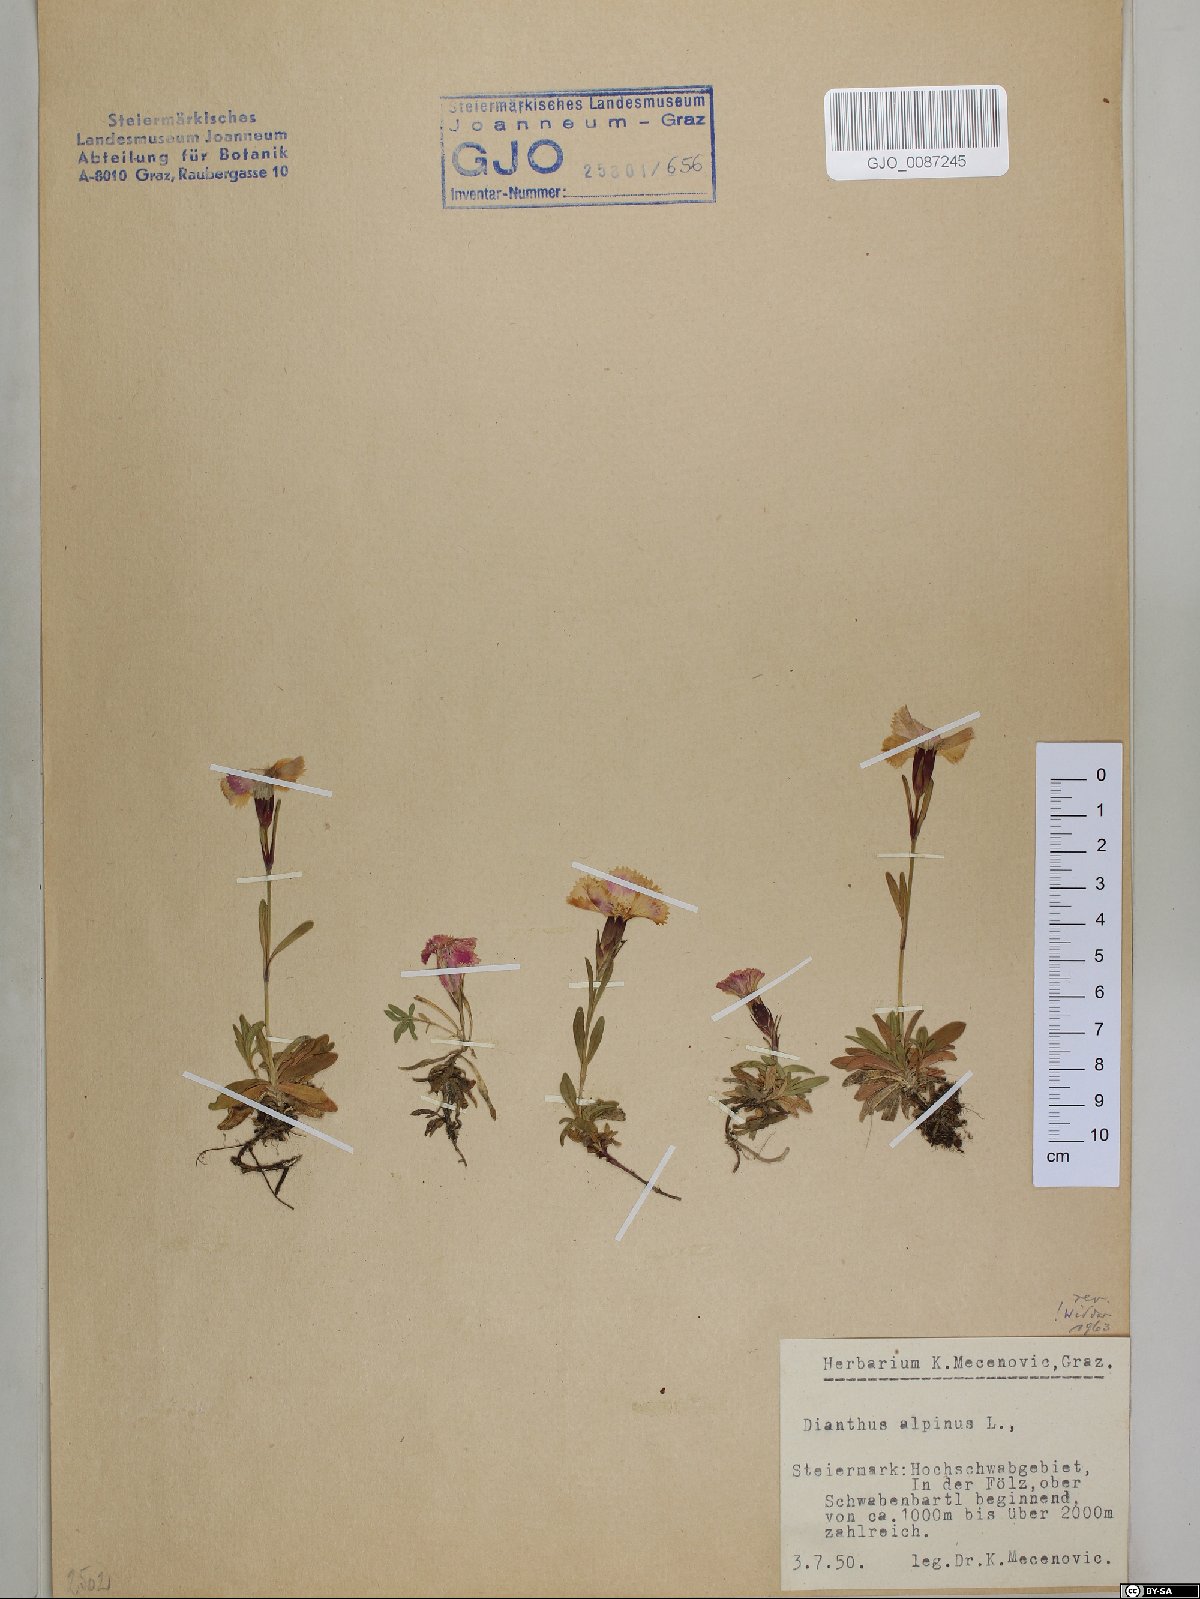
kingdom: Plantae
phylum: Tracheophyta
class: Magnoliopsida
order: Caryophyllales
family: Caryophyllaceae
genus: Dianthus
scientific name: Dianthus alpinus
